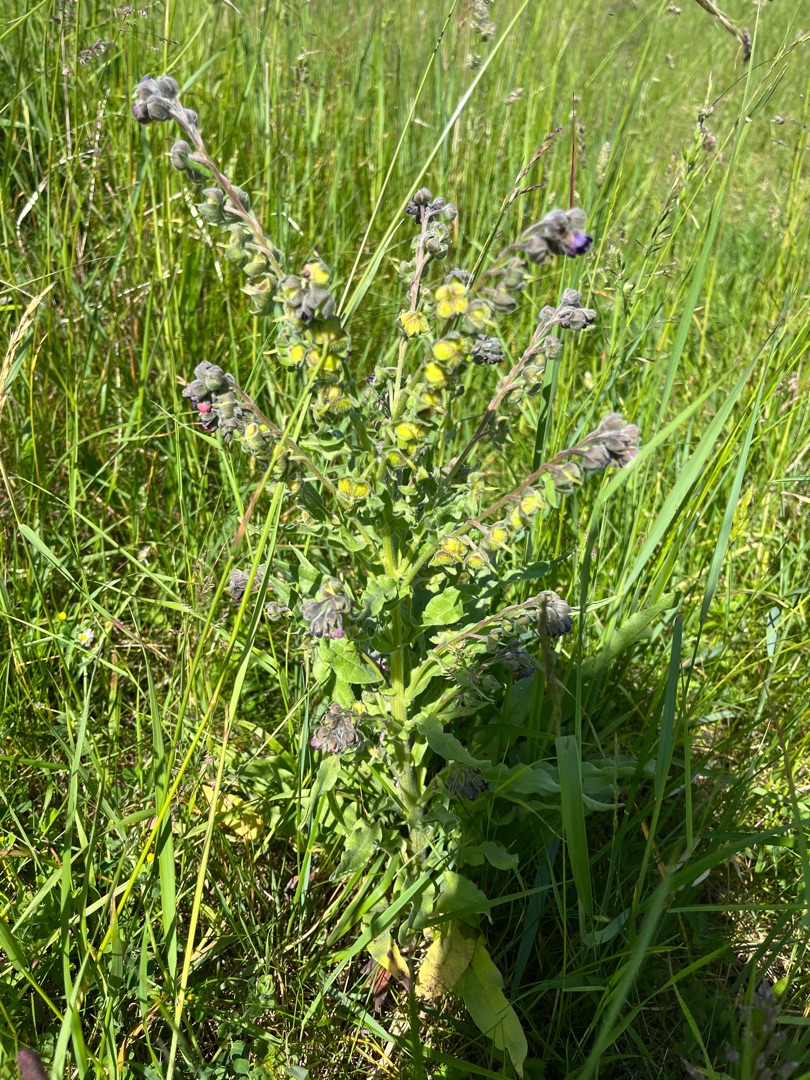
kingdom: Plantae
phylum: Tracheophyta
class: Magnoliopsida
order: Boraginales
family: Boraginaceae
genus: Cynoglossum
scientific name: Cynoglossum officinale
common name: Hundetunge
